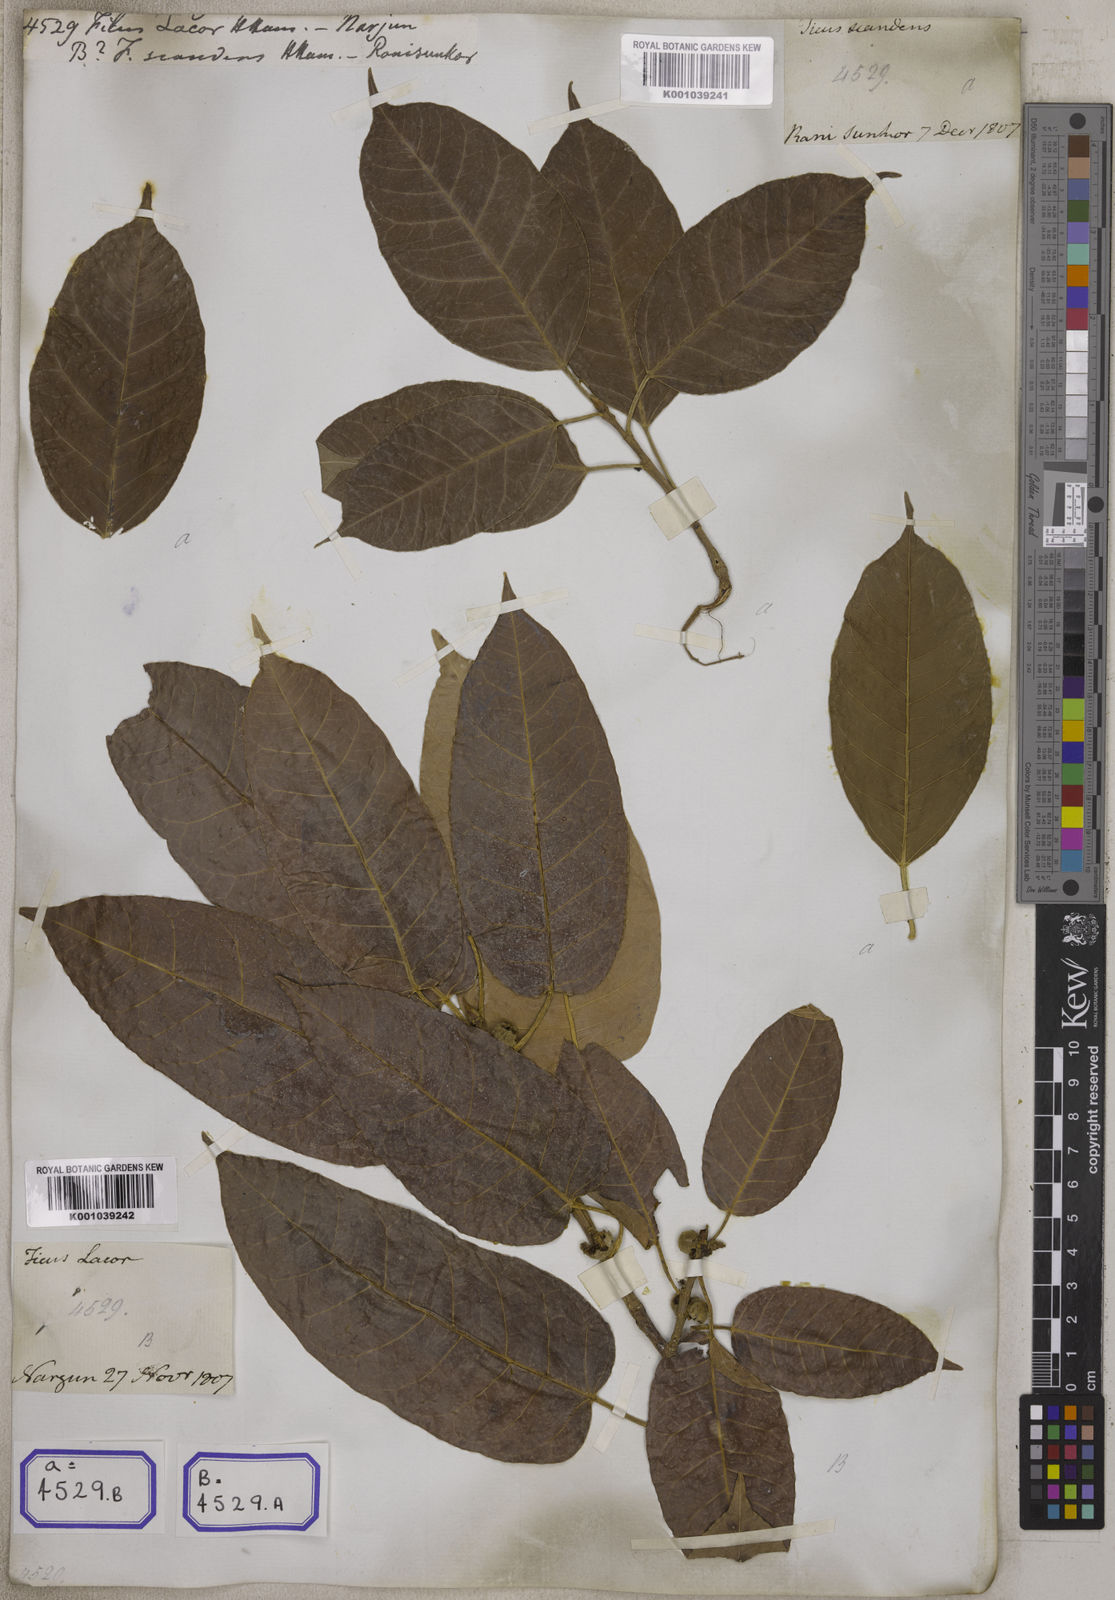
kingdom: Plantae
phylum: Tracheophyta
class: Magnoliopsida
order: Rosales
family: Moraceae
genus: Ficus
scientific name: Ficus lacor
